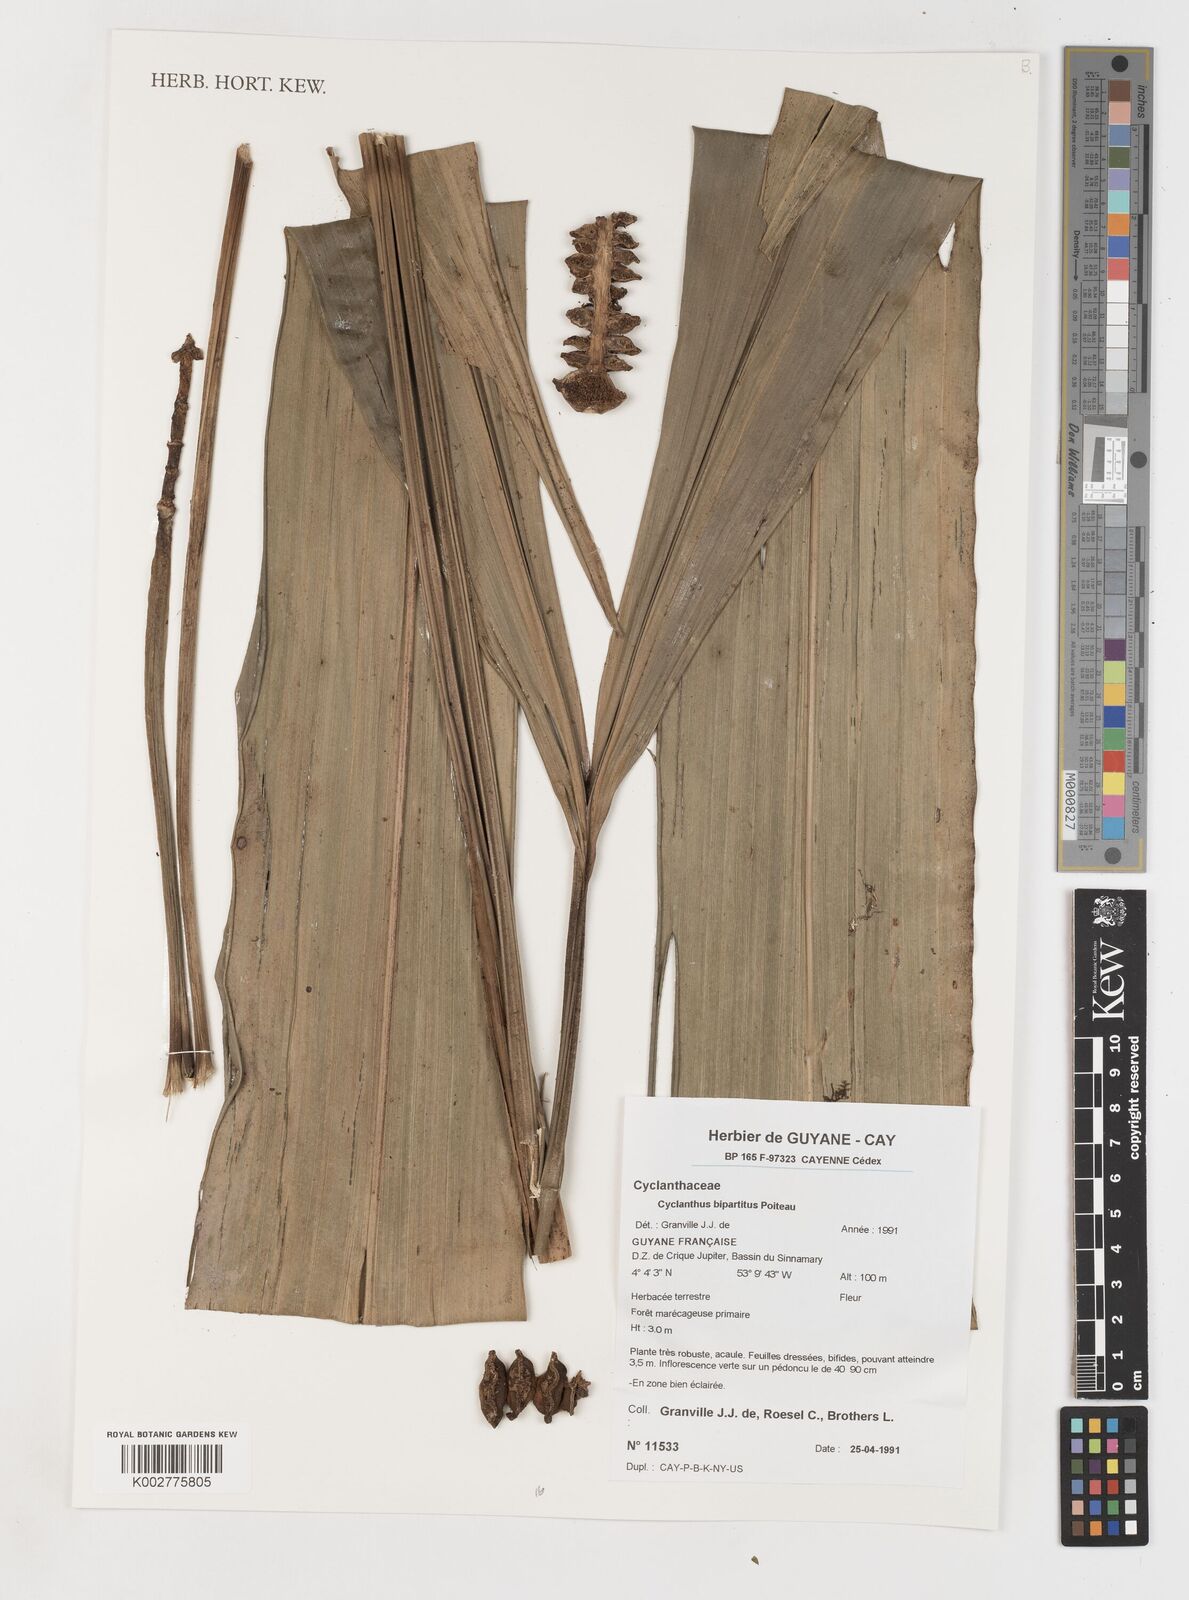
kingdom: Plantae
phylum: Tracheophyta
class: Liliopsida
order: Pandanales
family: Cyclanthaceae
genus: Cyclanthus
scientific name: Cyclanthus bipartitus
